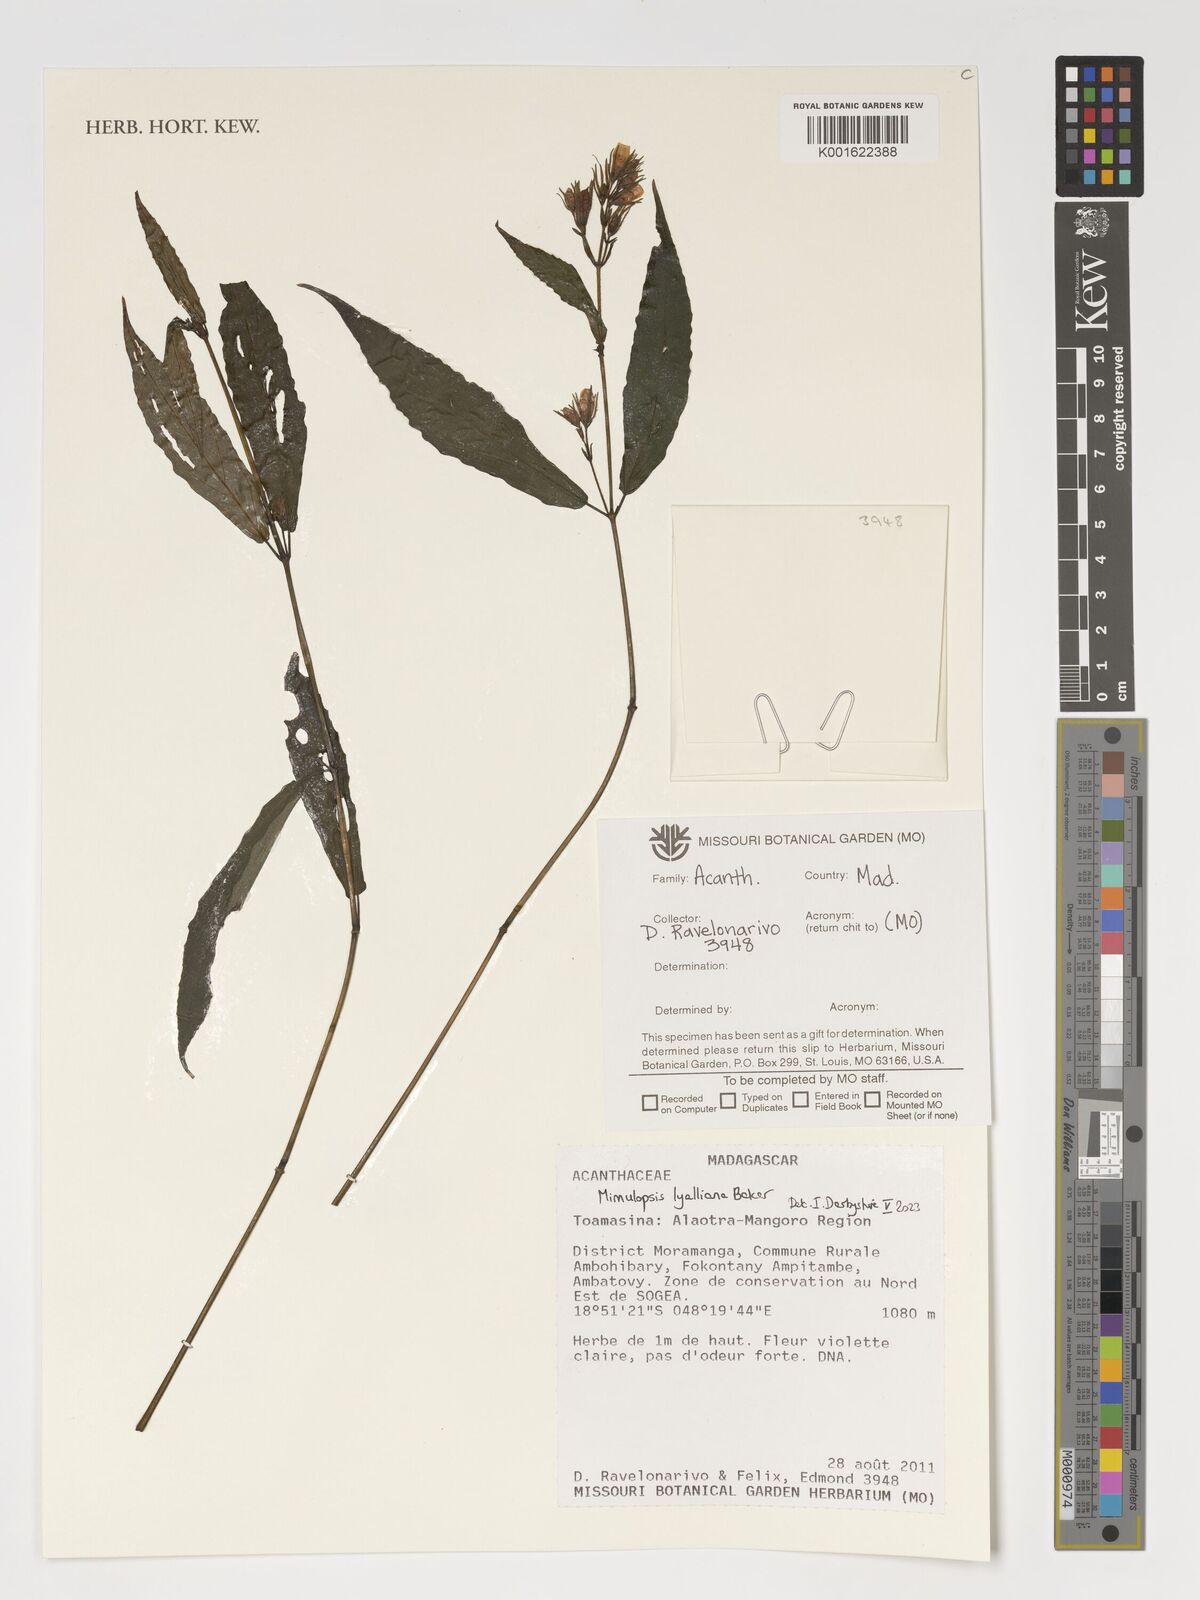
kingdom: Plantae
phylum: Tracheophyta
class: Magnoliopsida
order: Lamiales
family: Acanthaceae
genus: Mimulopsis
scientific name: Mimulopsis
